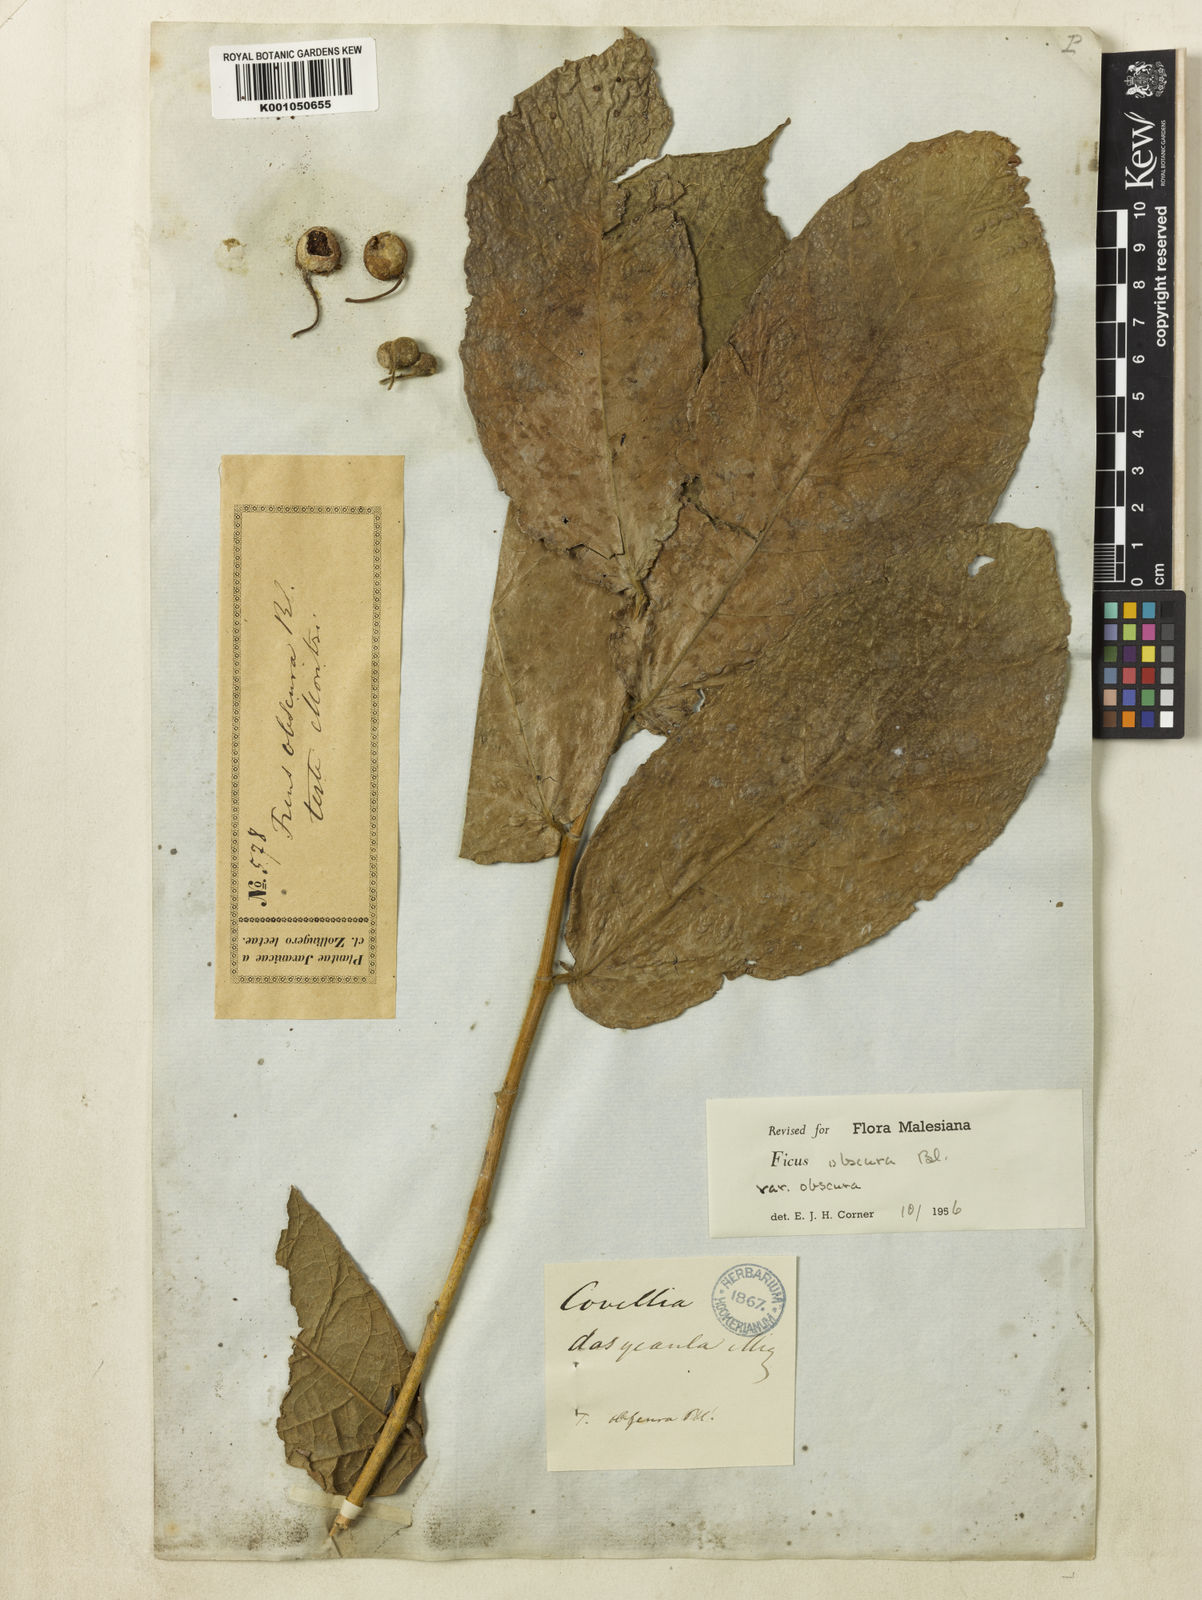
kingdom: Plantae
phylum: Tracheophyta
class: Magnoliopsida
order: Rosales
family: Moraceae
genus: Ficus
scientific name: Ficus obscura
